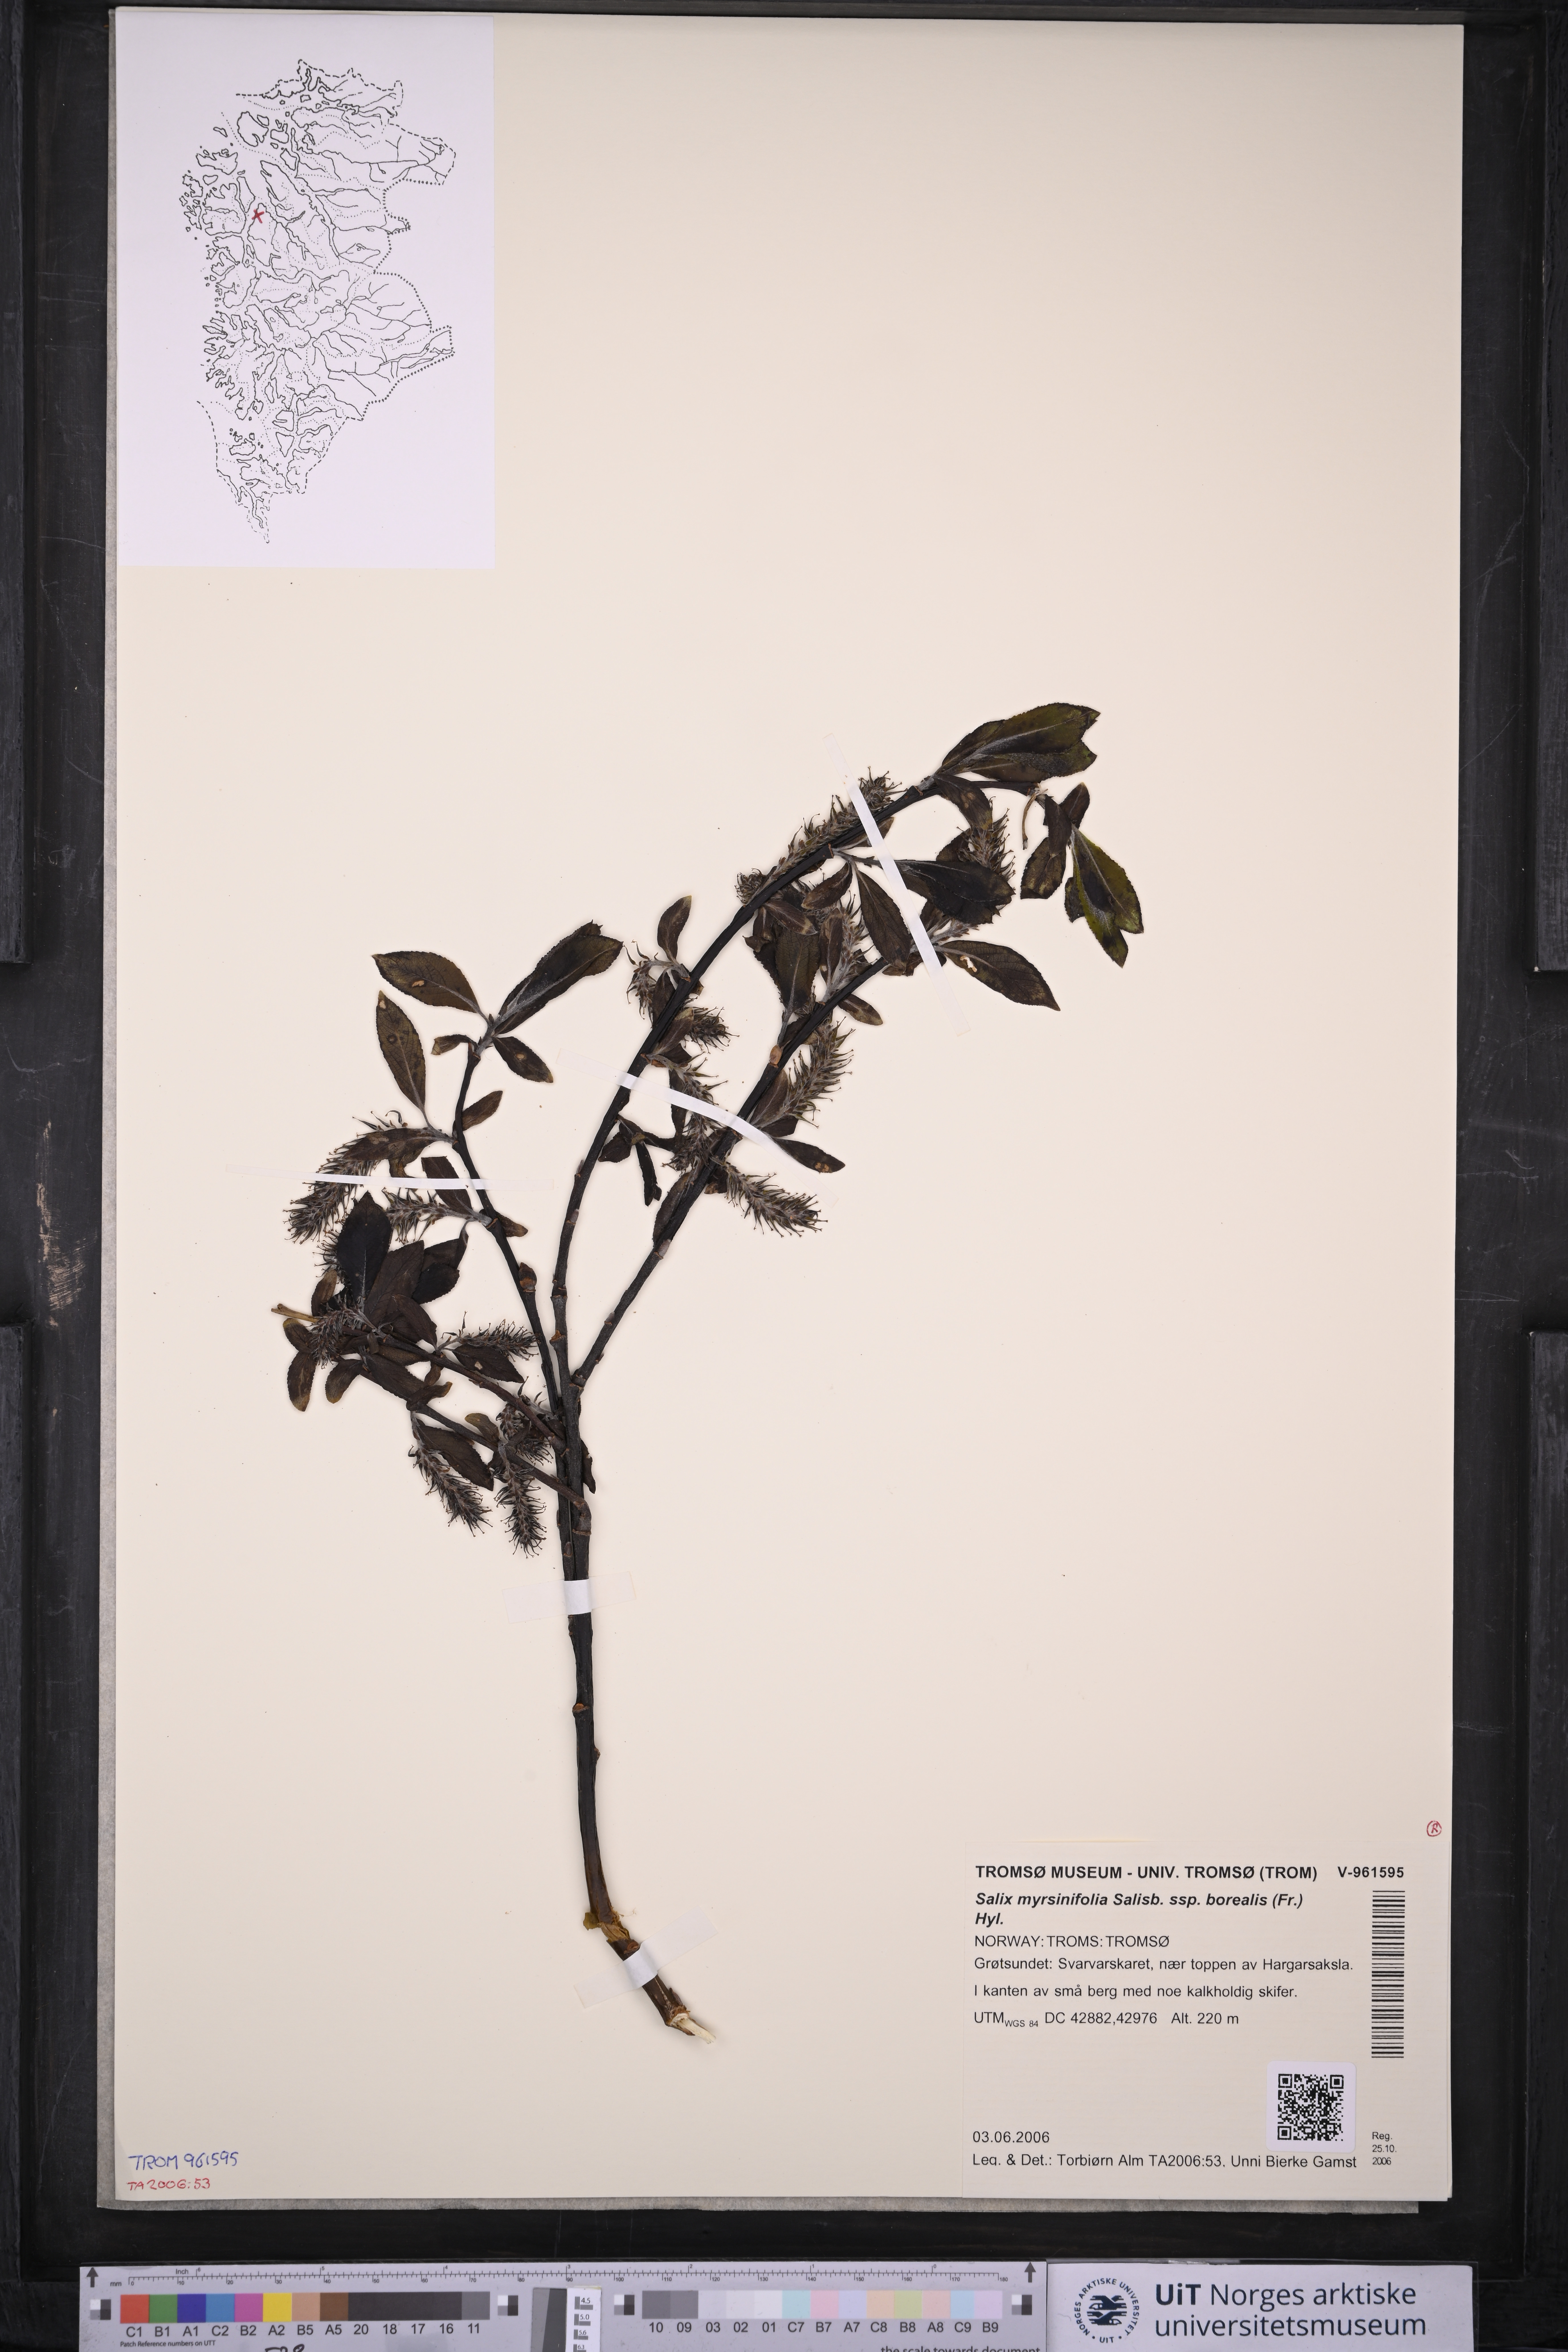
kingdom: Plantae
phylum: Tracheophyta
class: Magnoliopsida
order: Malpighiales
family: Salicaceae
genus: Salix
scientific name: Salix myrsinifolia
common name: Dark-leaved willow
